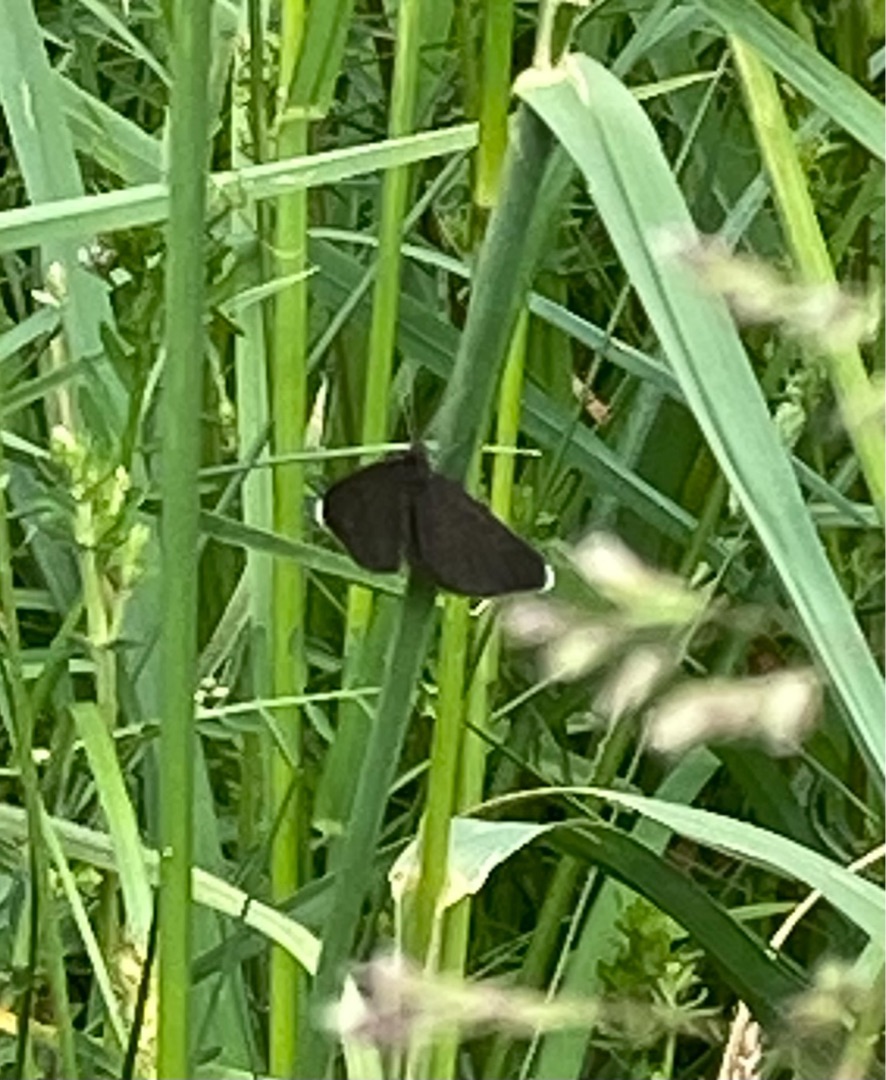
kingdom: Animalia
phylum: Arthropoda
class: Insecta
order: Lepidoptera
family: Geometridae
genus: Odezia
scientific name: Odezia atrata
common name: Sort måler
